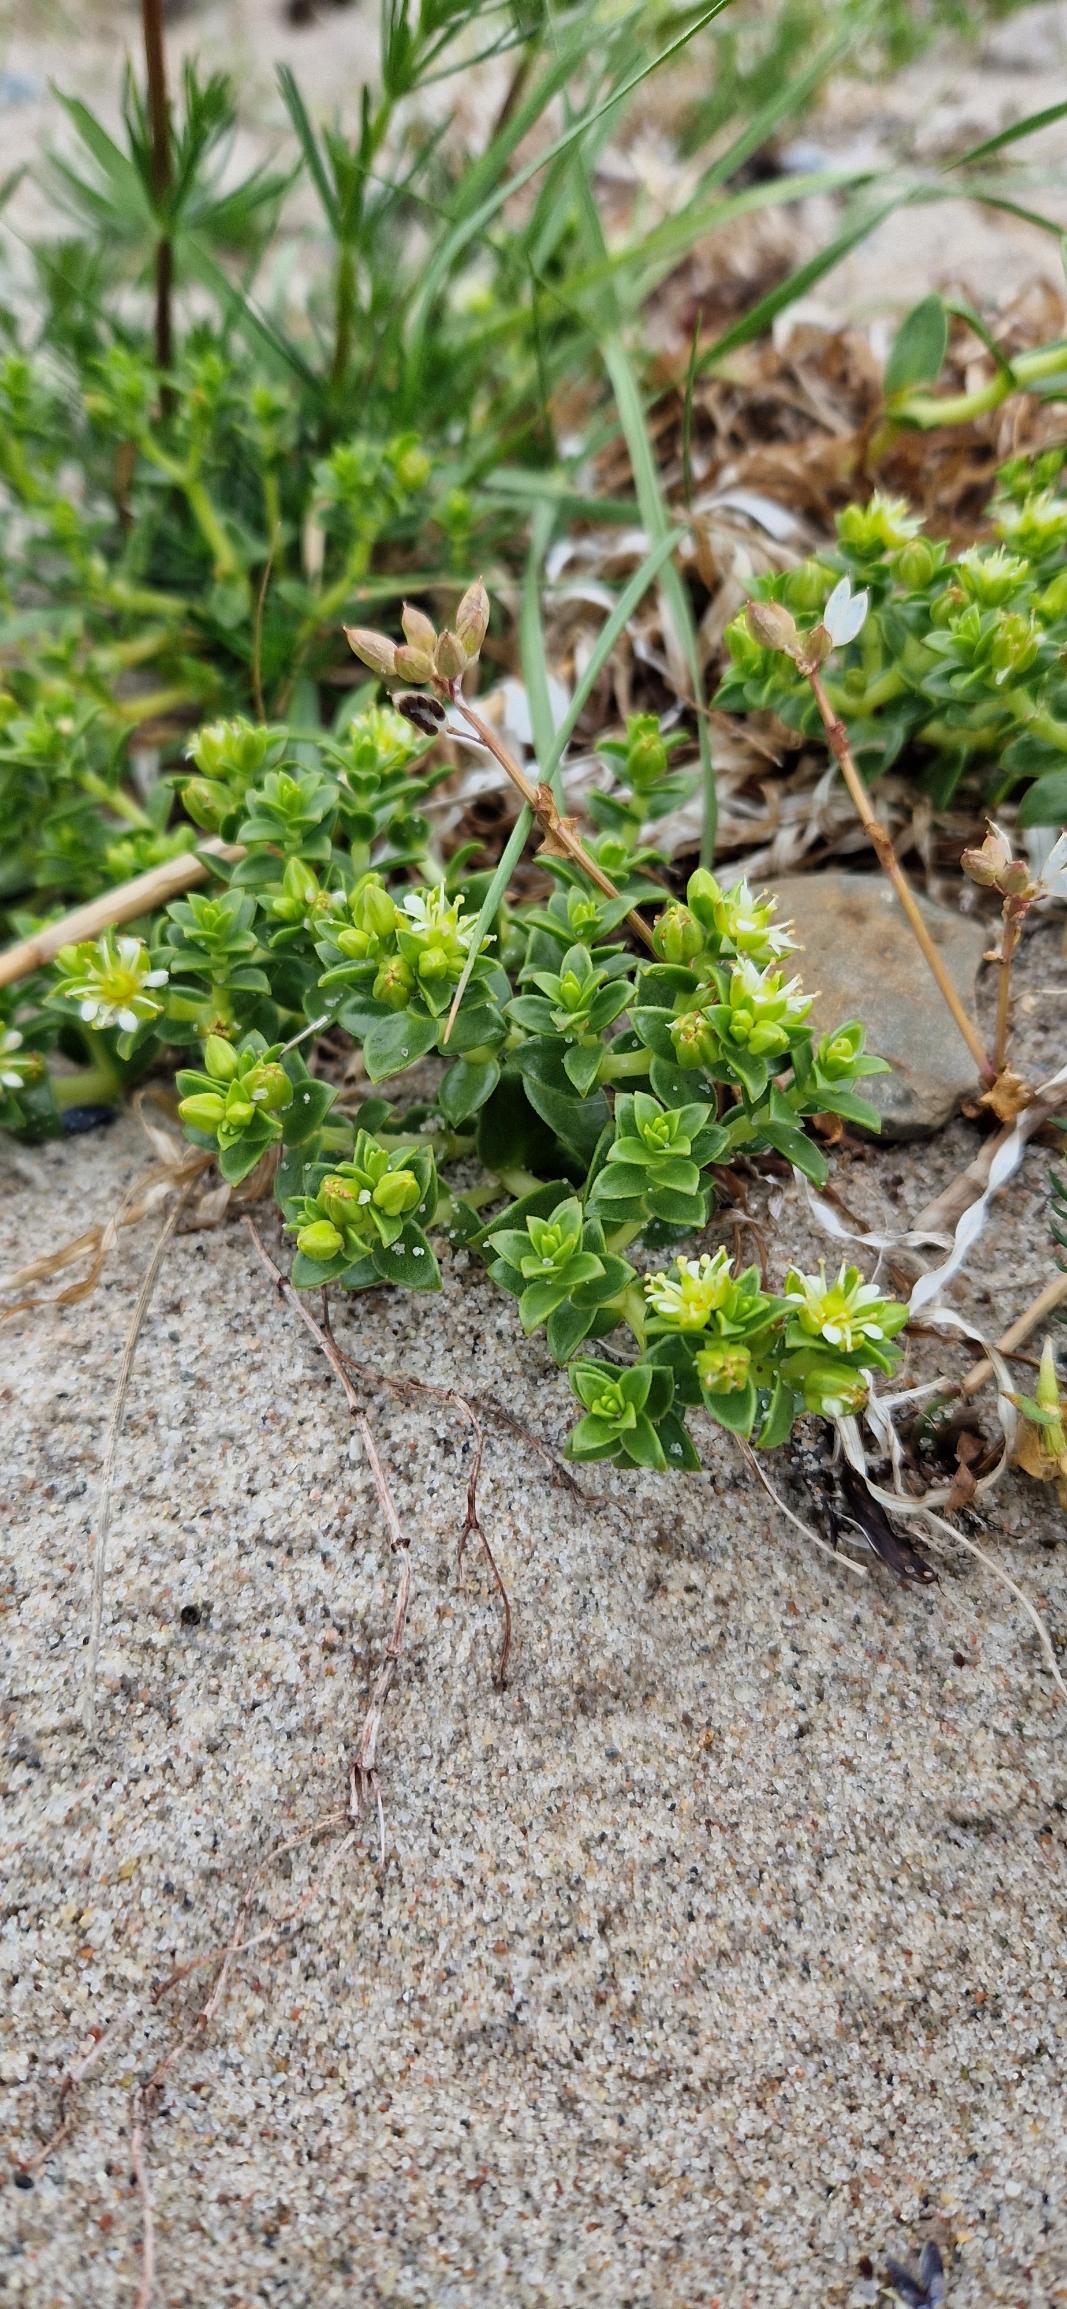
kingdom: Plantae
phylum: Tracheophyta
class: Magnoliopsida
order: Caryophyllales
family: Caryophyllaceae
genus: Honckenya
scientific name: Honckenya peploides
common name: Strandarve
